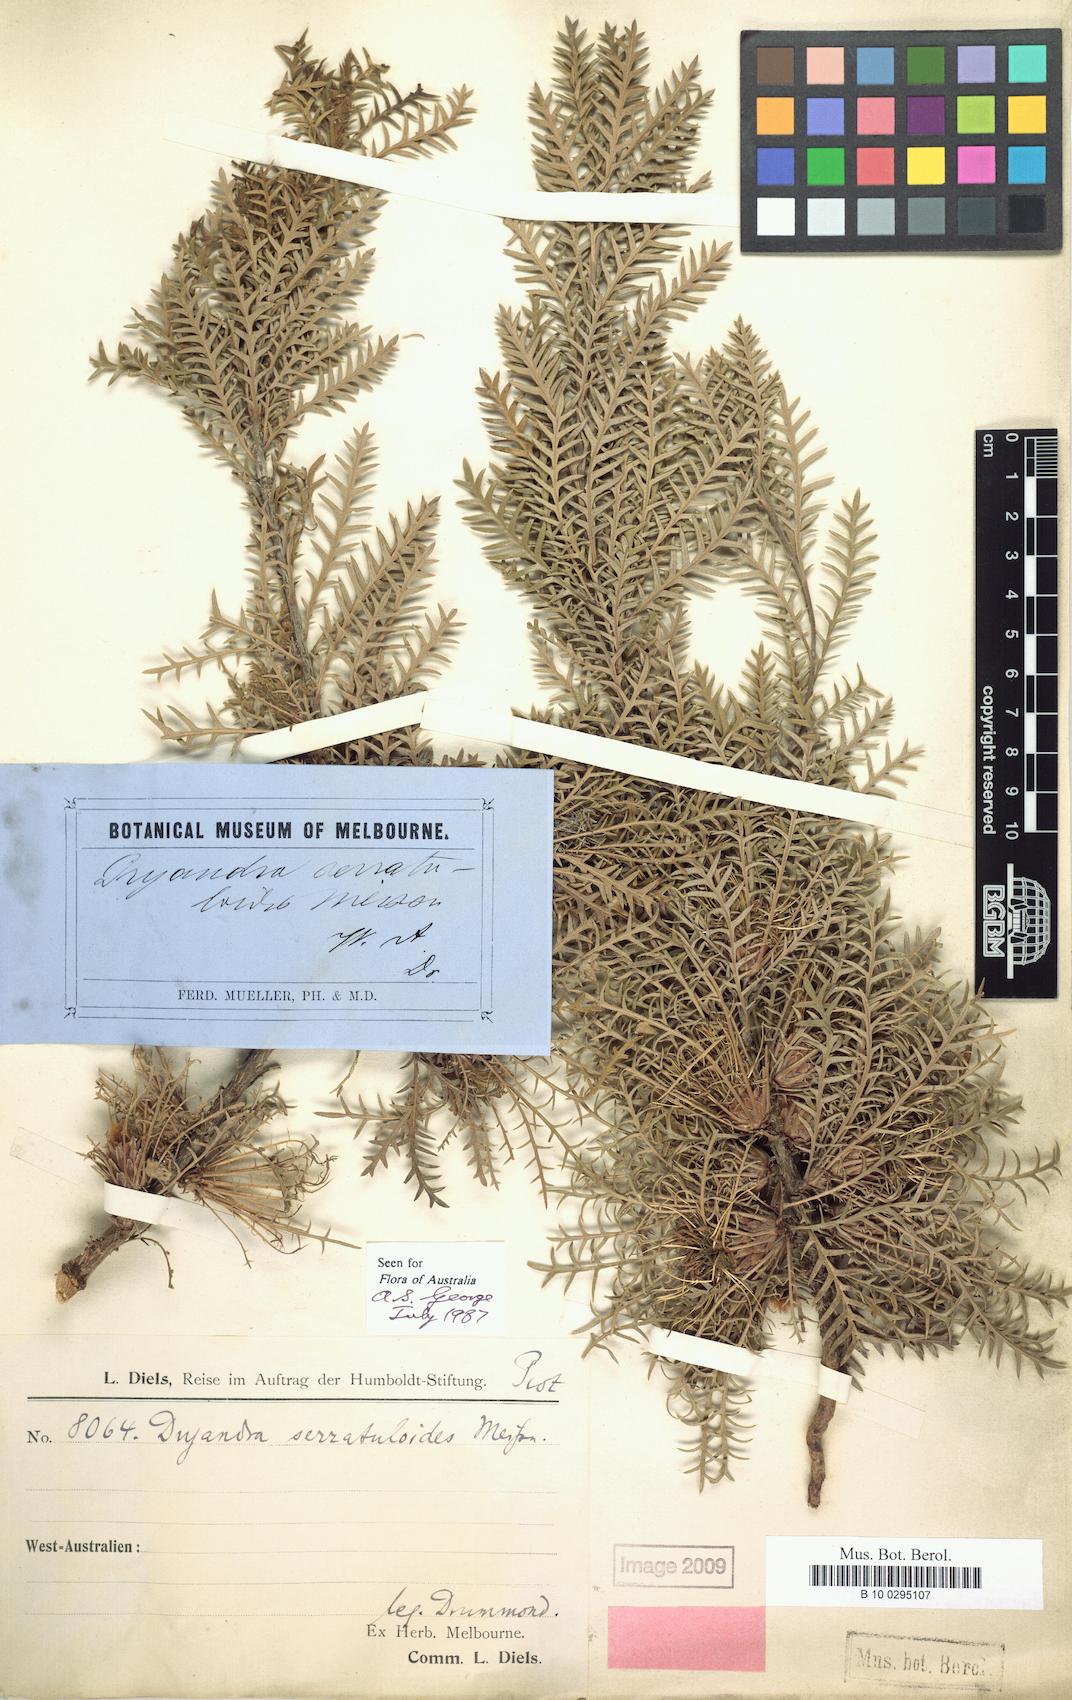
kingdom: Plantae
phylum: Tracheophyta
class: Magnoliopsida
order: Proteales
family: Proteaceae
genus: Banksia
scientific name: Banksia serratuloides
